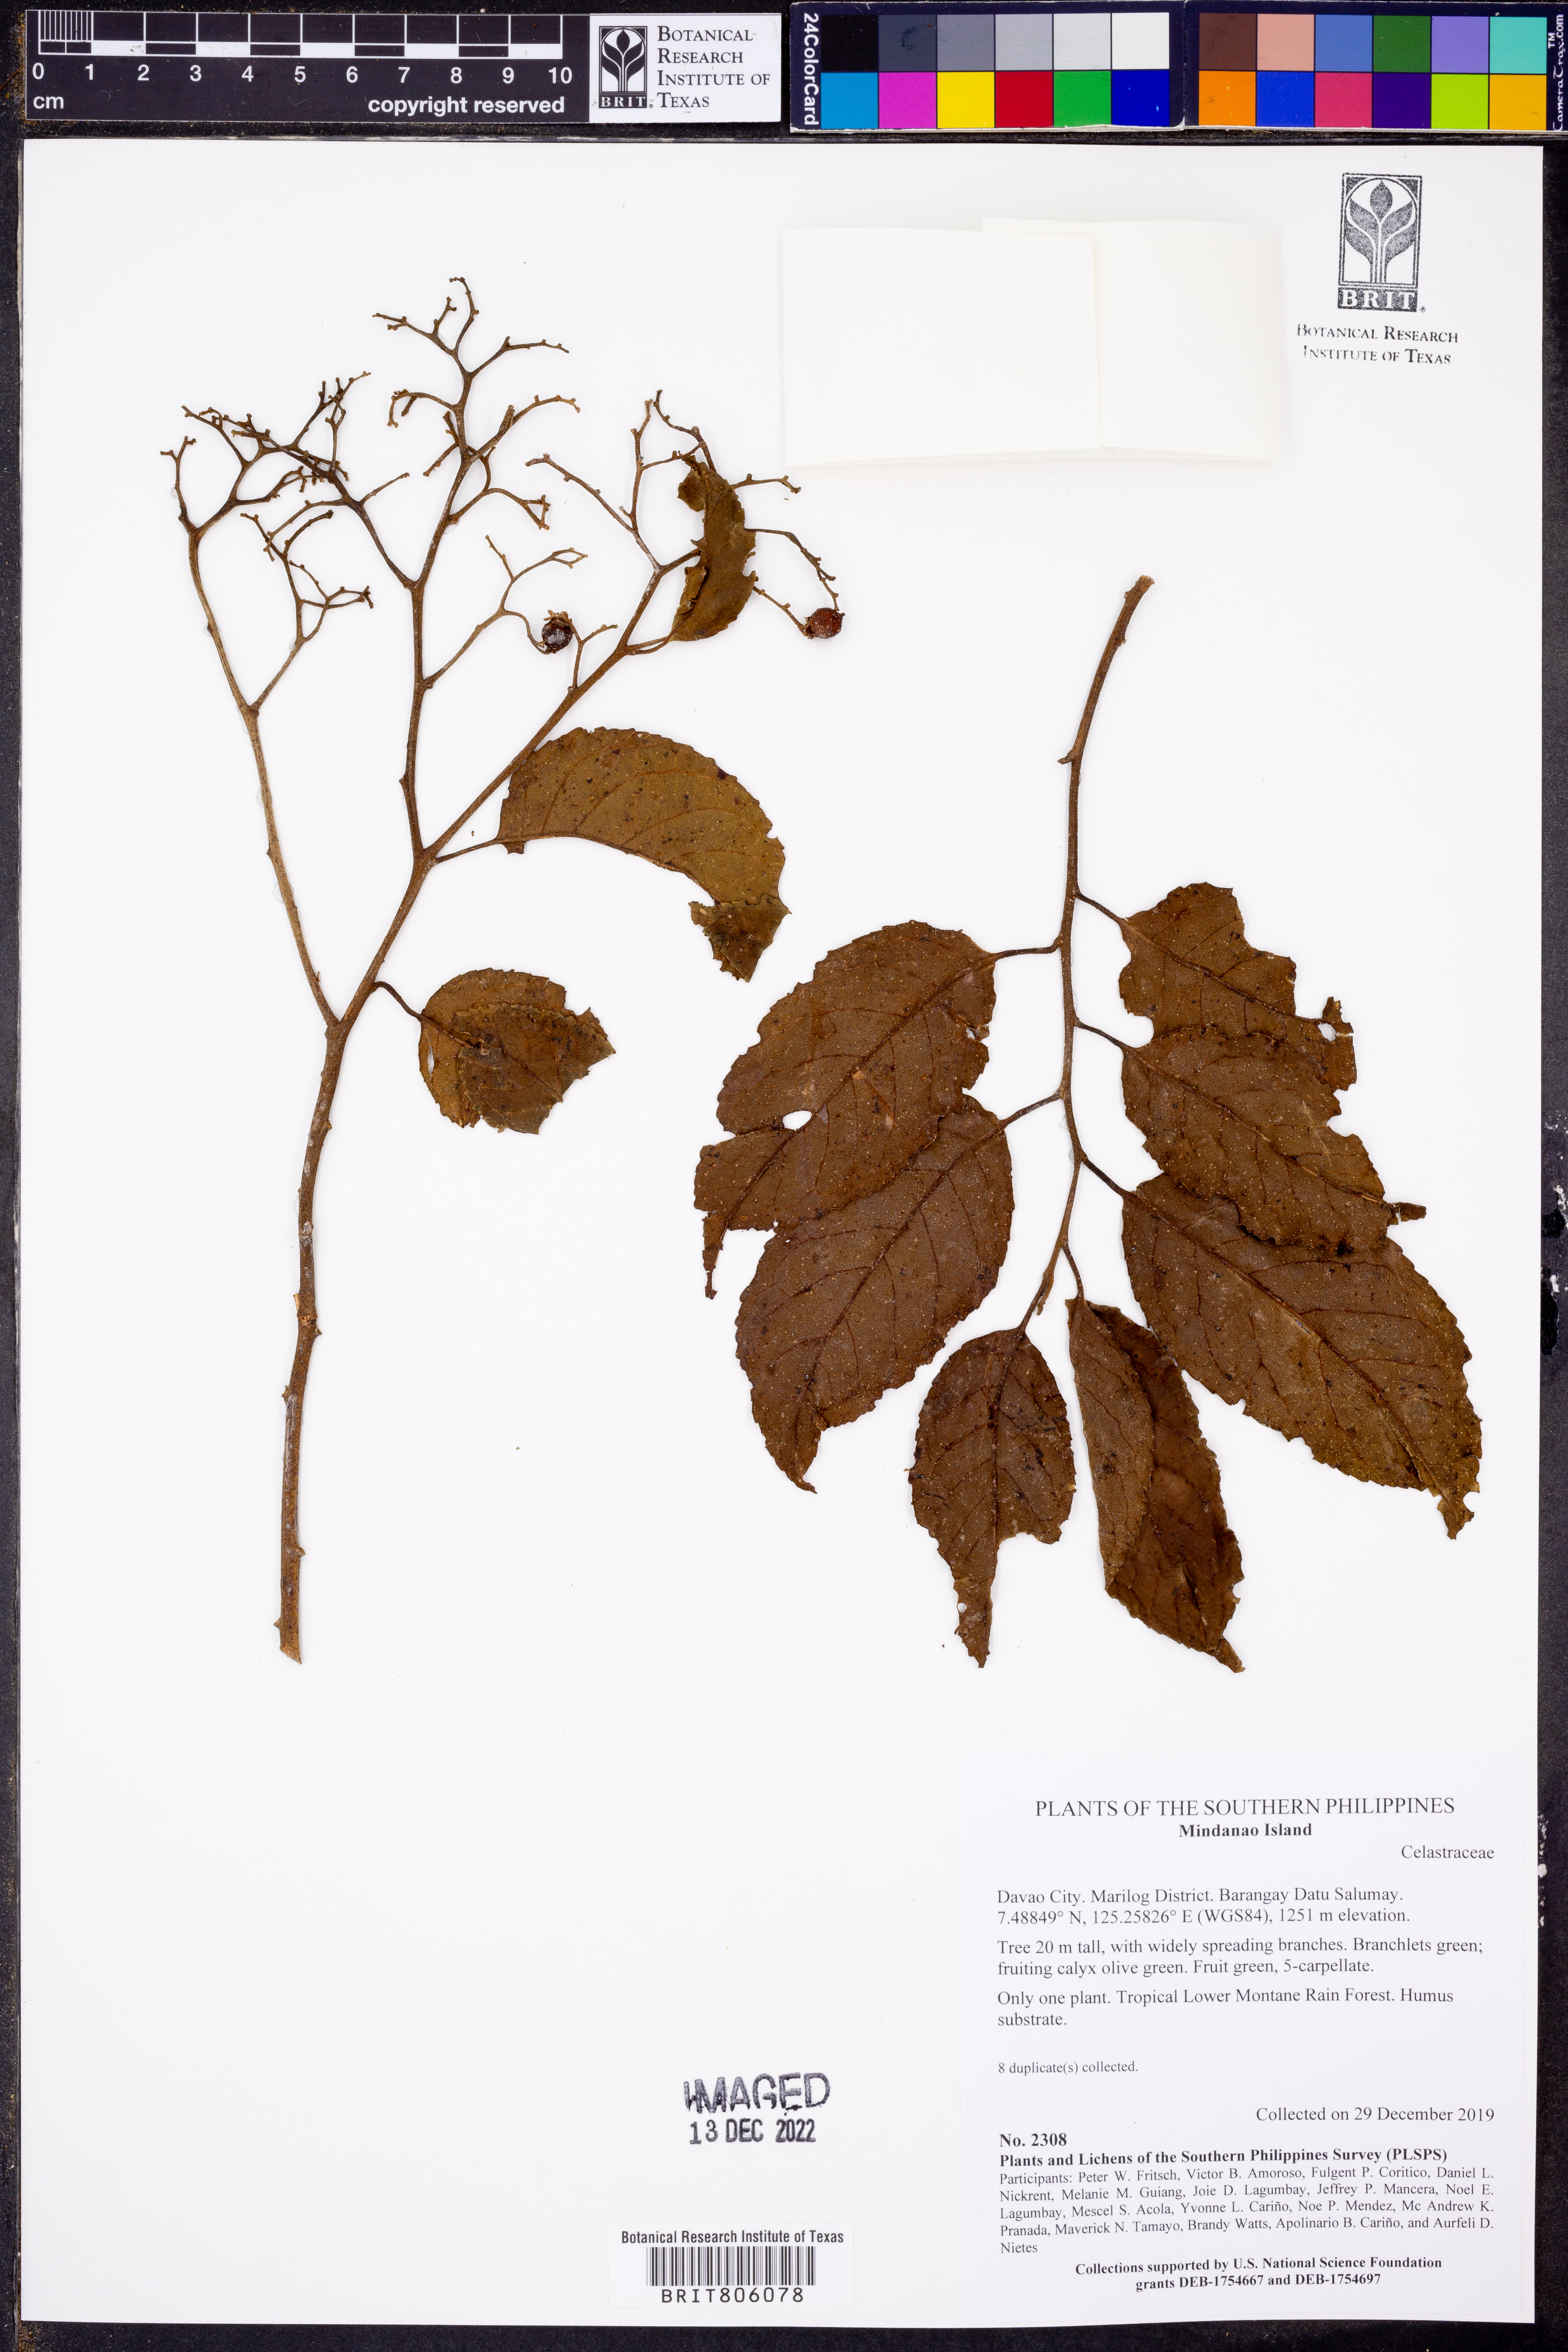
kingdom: Plantae
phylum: Tracheophyta
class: Magnoliopsida
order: Celastrales
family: Celastraceae
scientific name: Celastraceae
